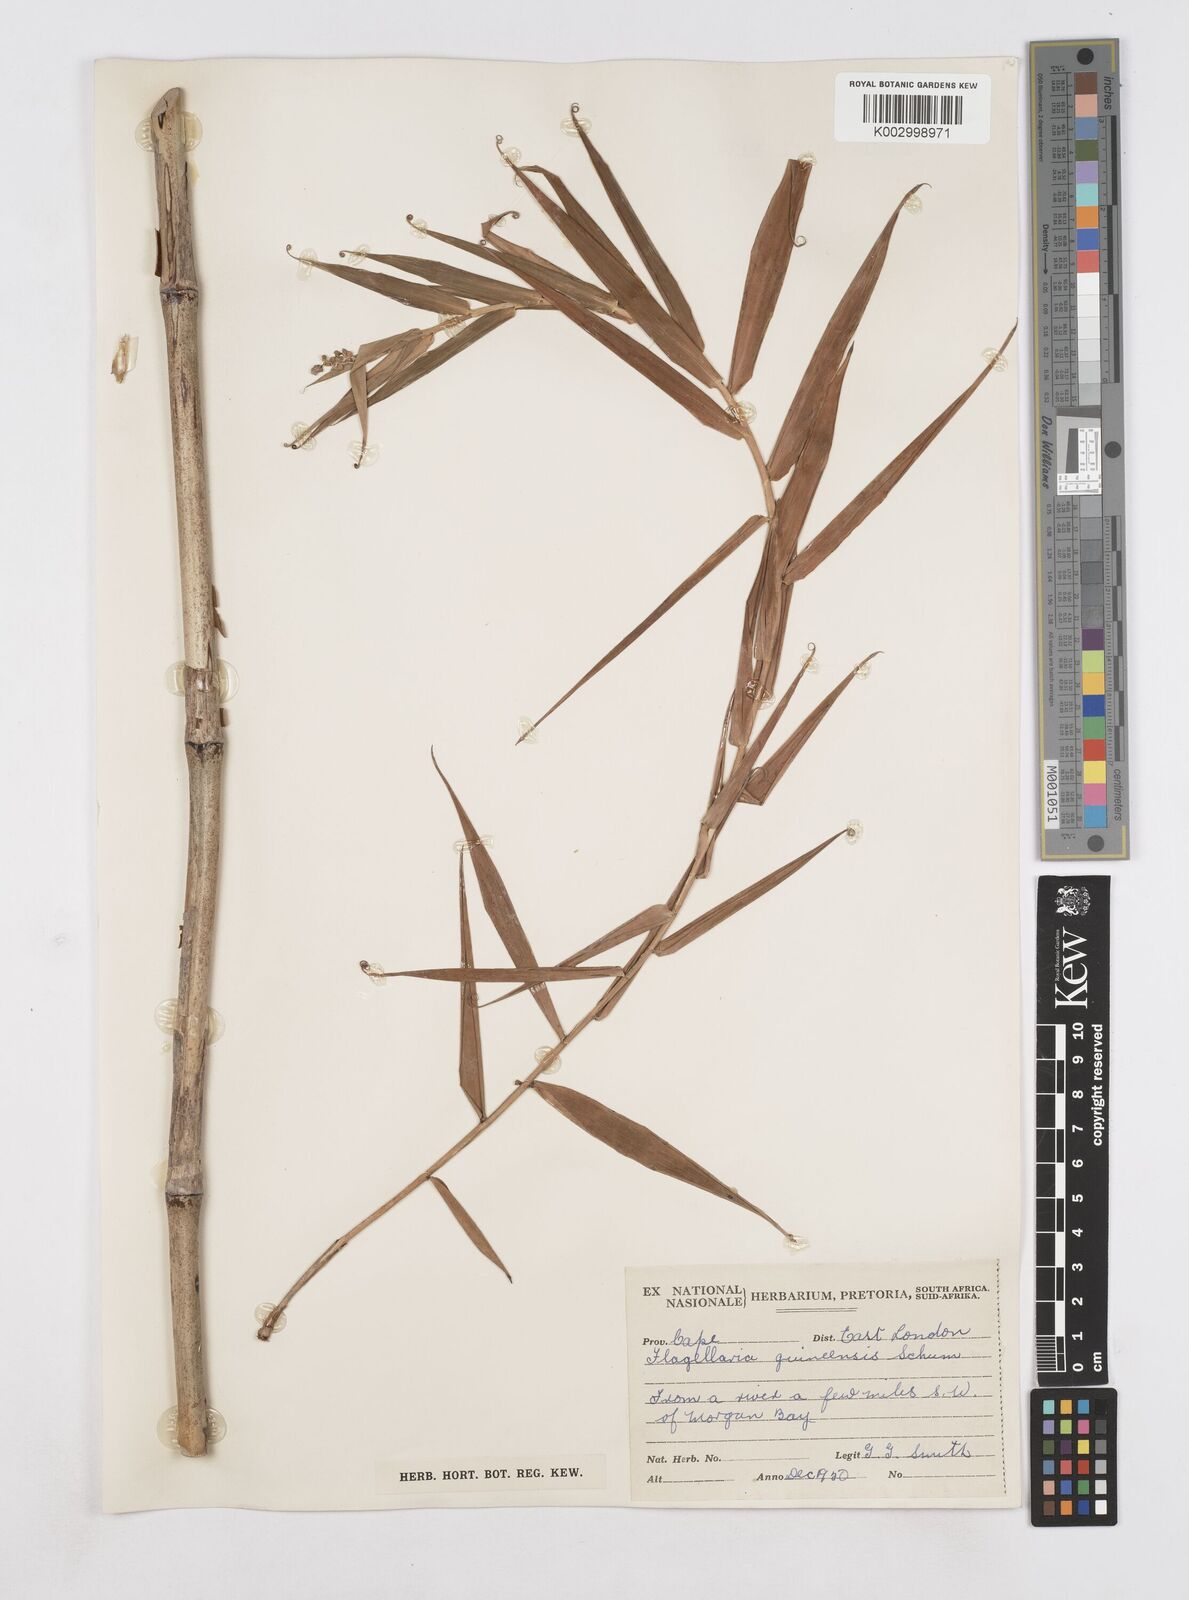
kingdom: Plantae
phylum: Tracheophyta
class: Liliopsida
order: Poales
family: Flagellariaceae
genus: Flagellaria
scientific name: Flagellaria guineensis
